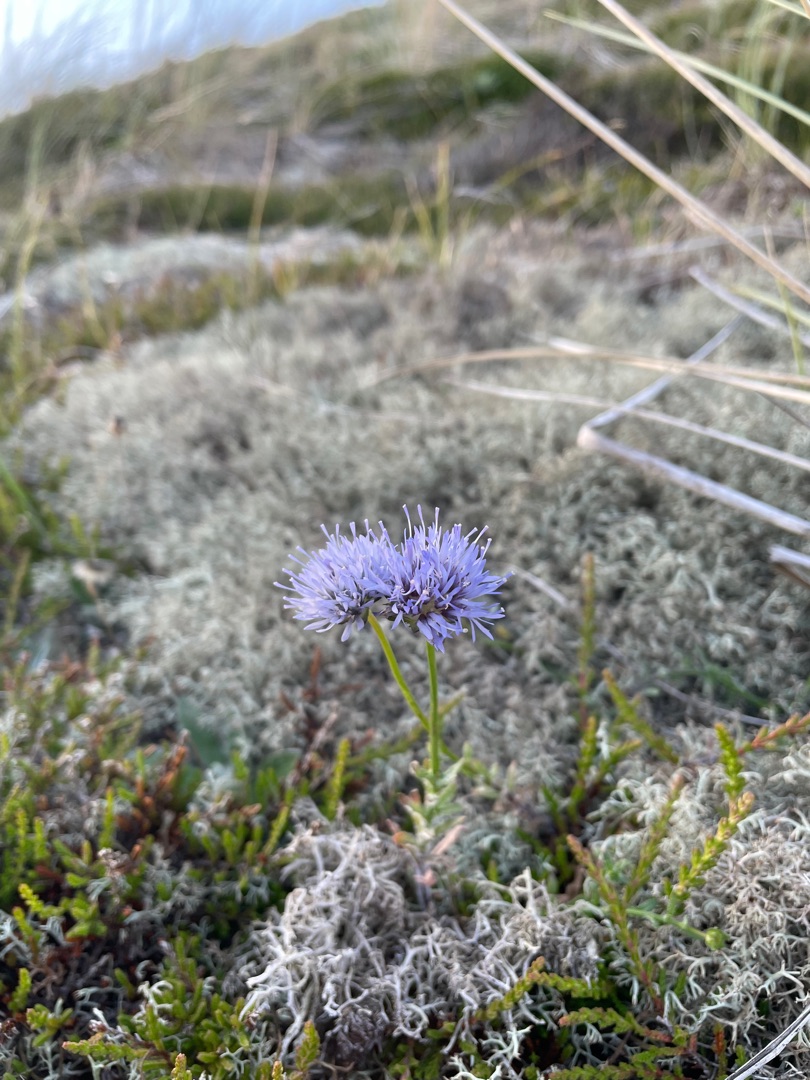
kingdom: Plantae
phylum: Tracheophyta
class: Magnoliopsida
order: Asterales
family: Campanulaceae
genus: Jasione
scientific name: Jasione montana
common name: Blåmunke
